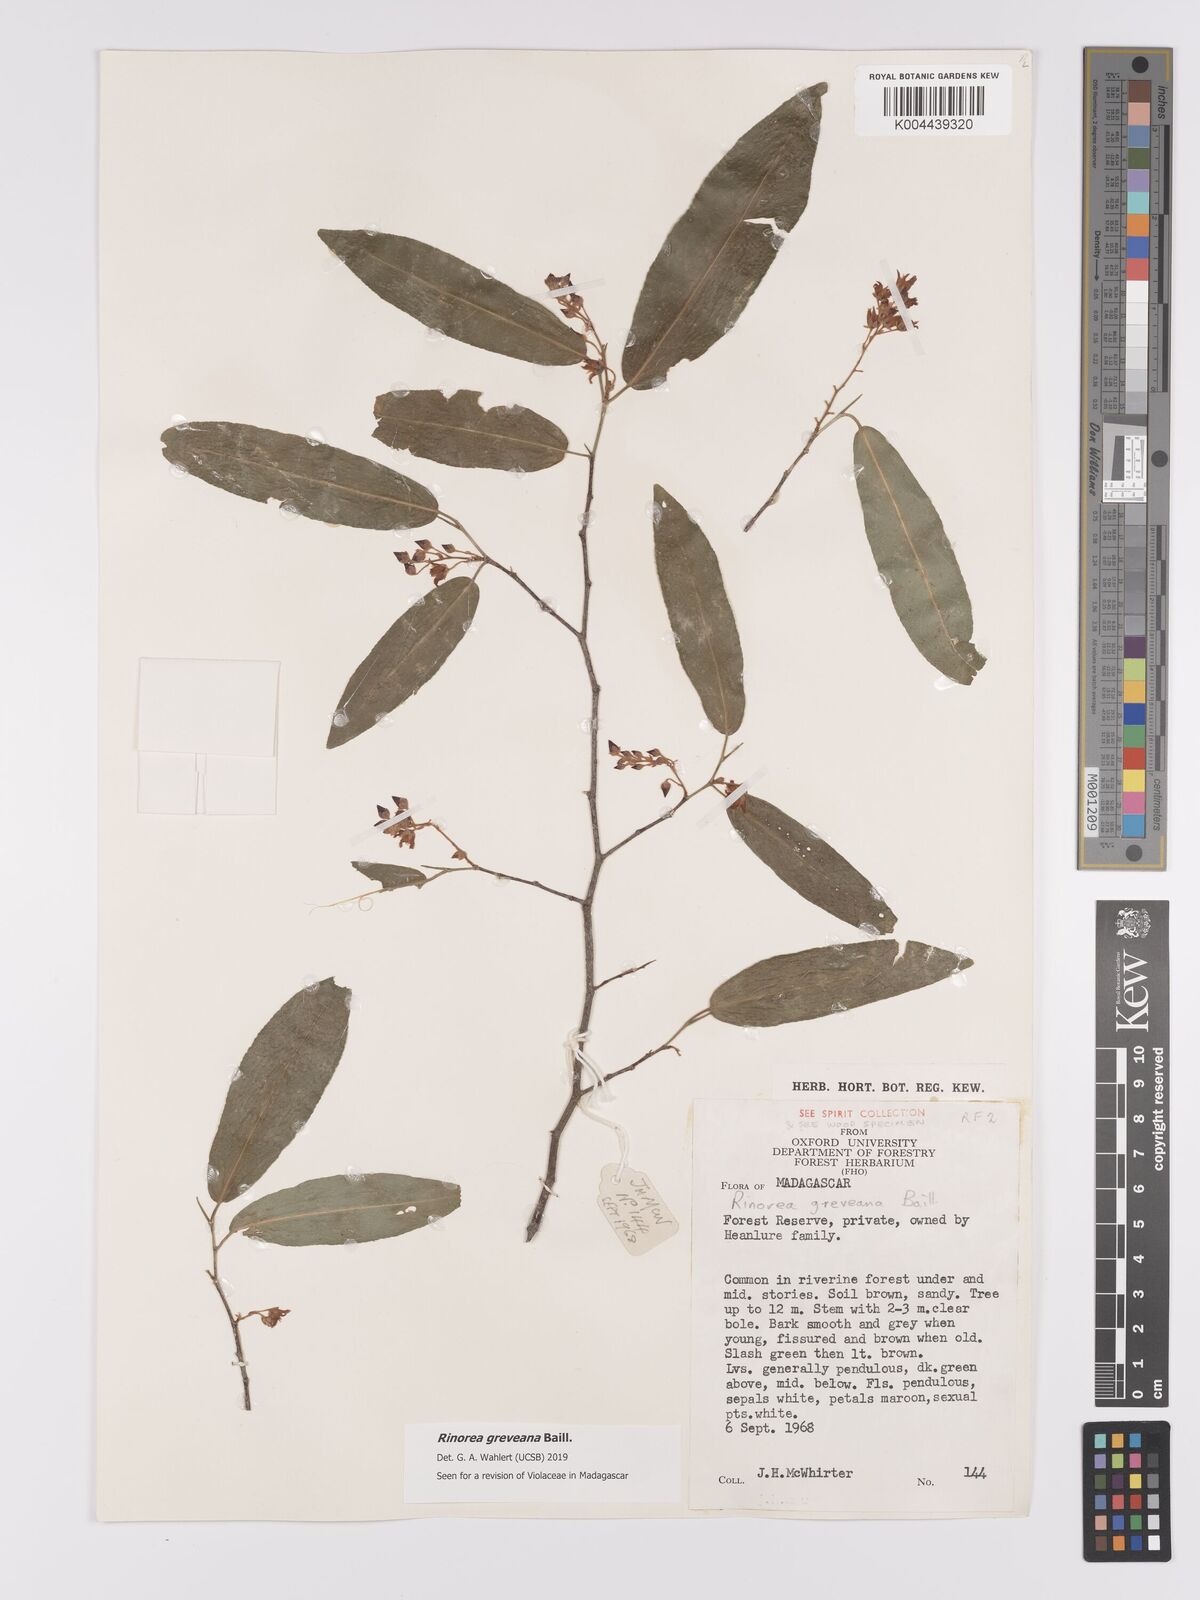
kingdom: Plantae
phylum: Tracheophyta
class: Magnoliopsida
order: Malpighiales
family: Violaceae
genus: Rinorea
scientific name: Rinorea greveana
